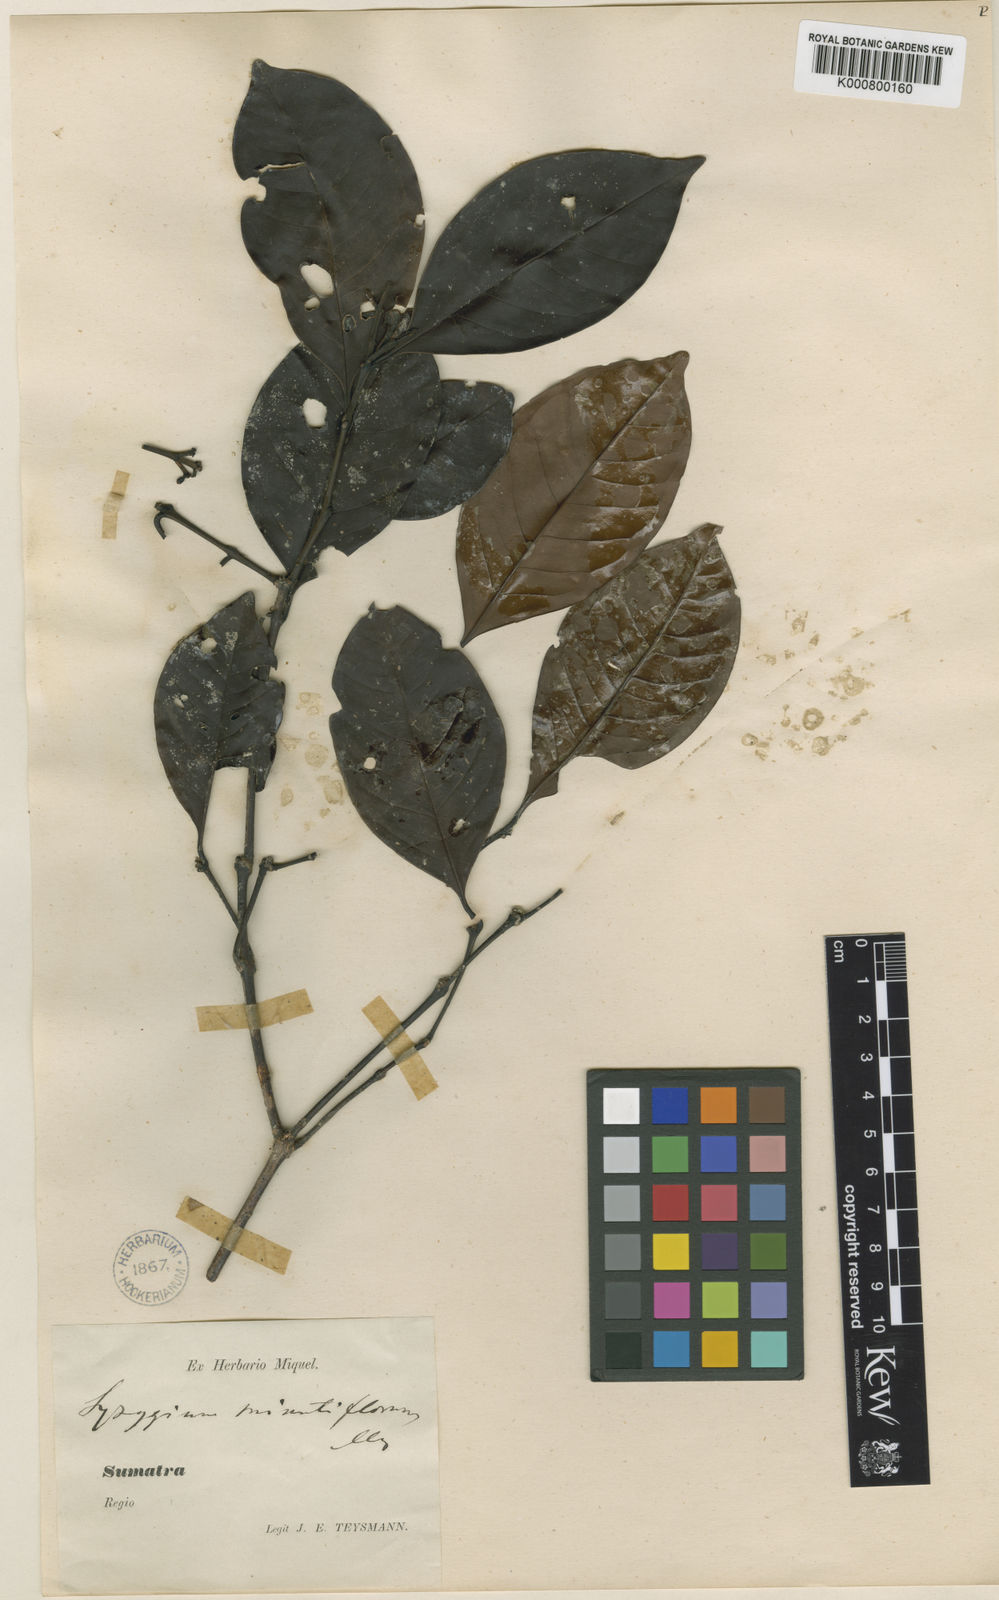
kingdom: Plantae
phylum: Tracheophyta
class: Magnoliopsida
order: Myrtales
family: Myrtaceae
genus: Syzygium
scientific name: Syzygium minutiflorum
